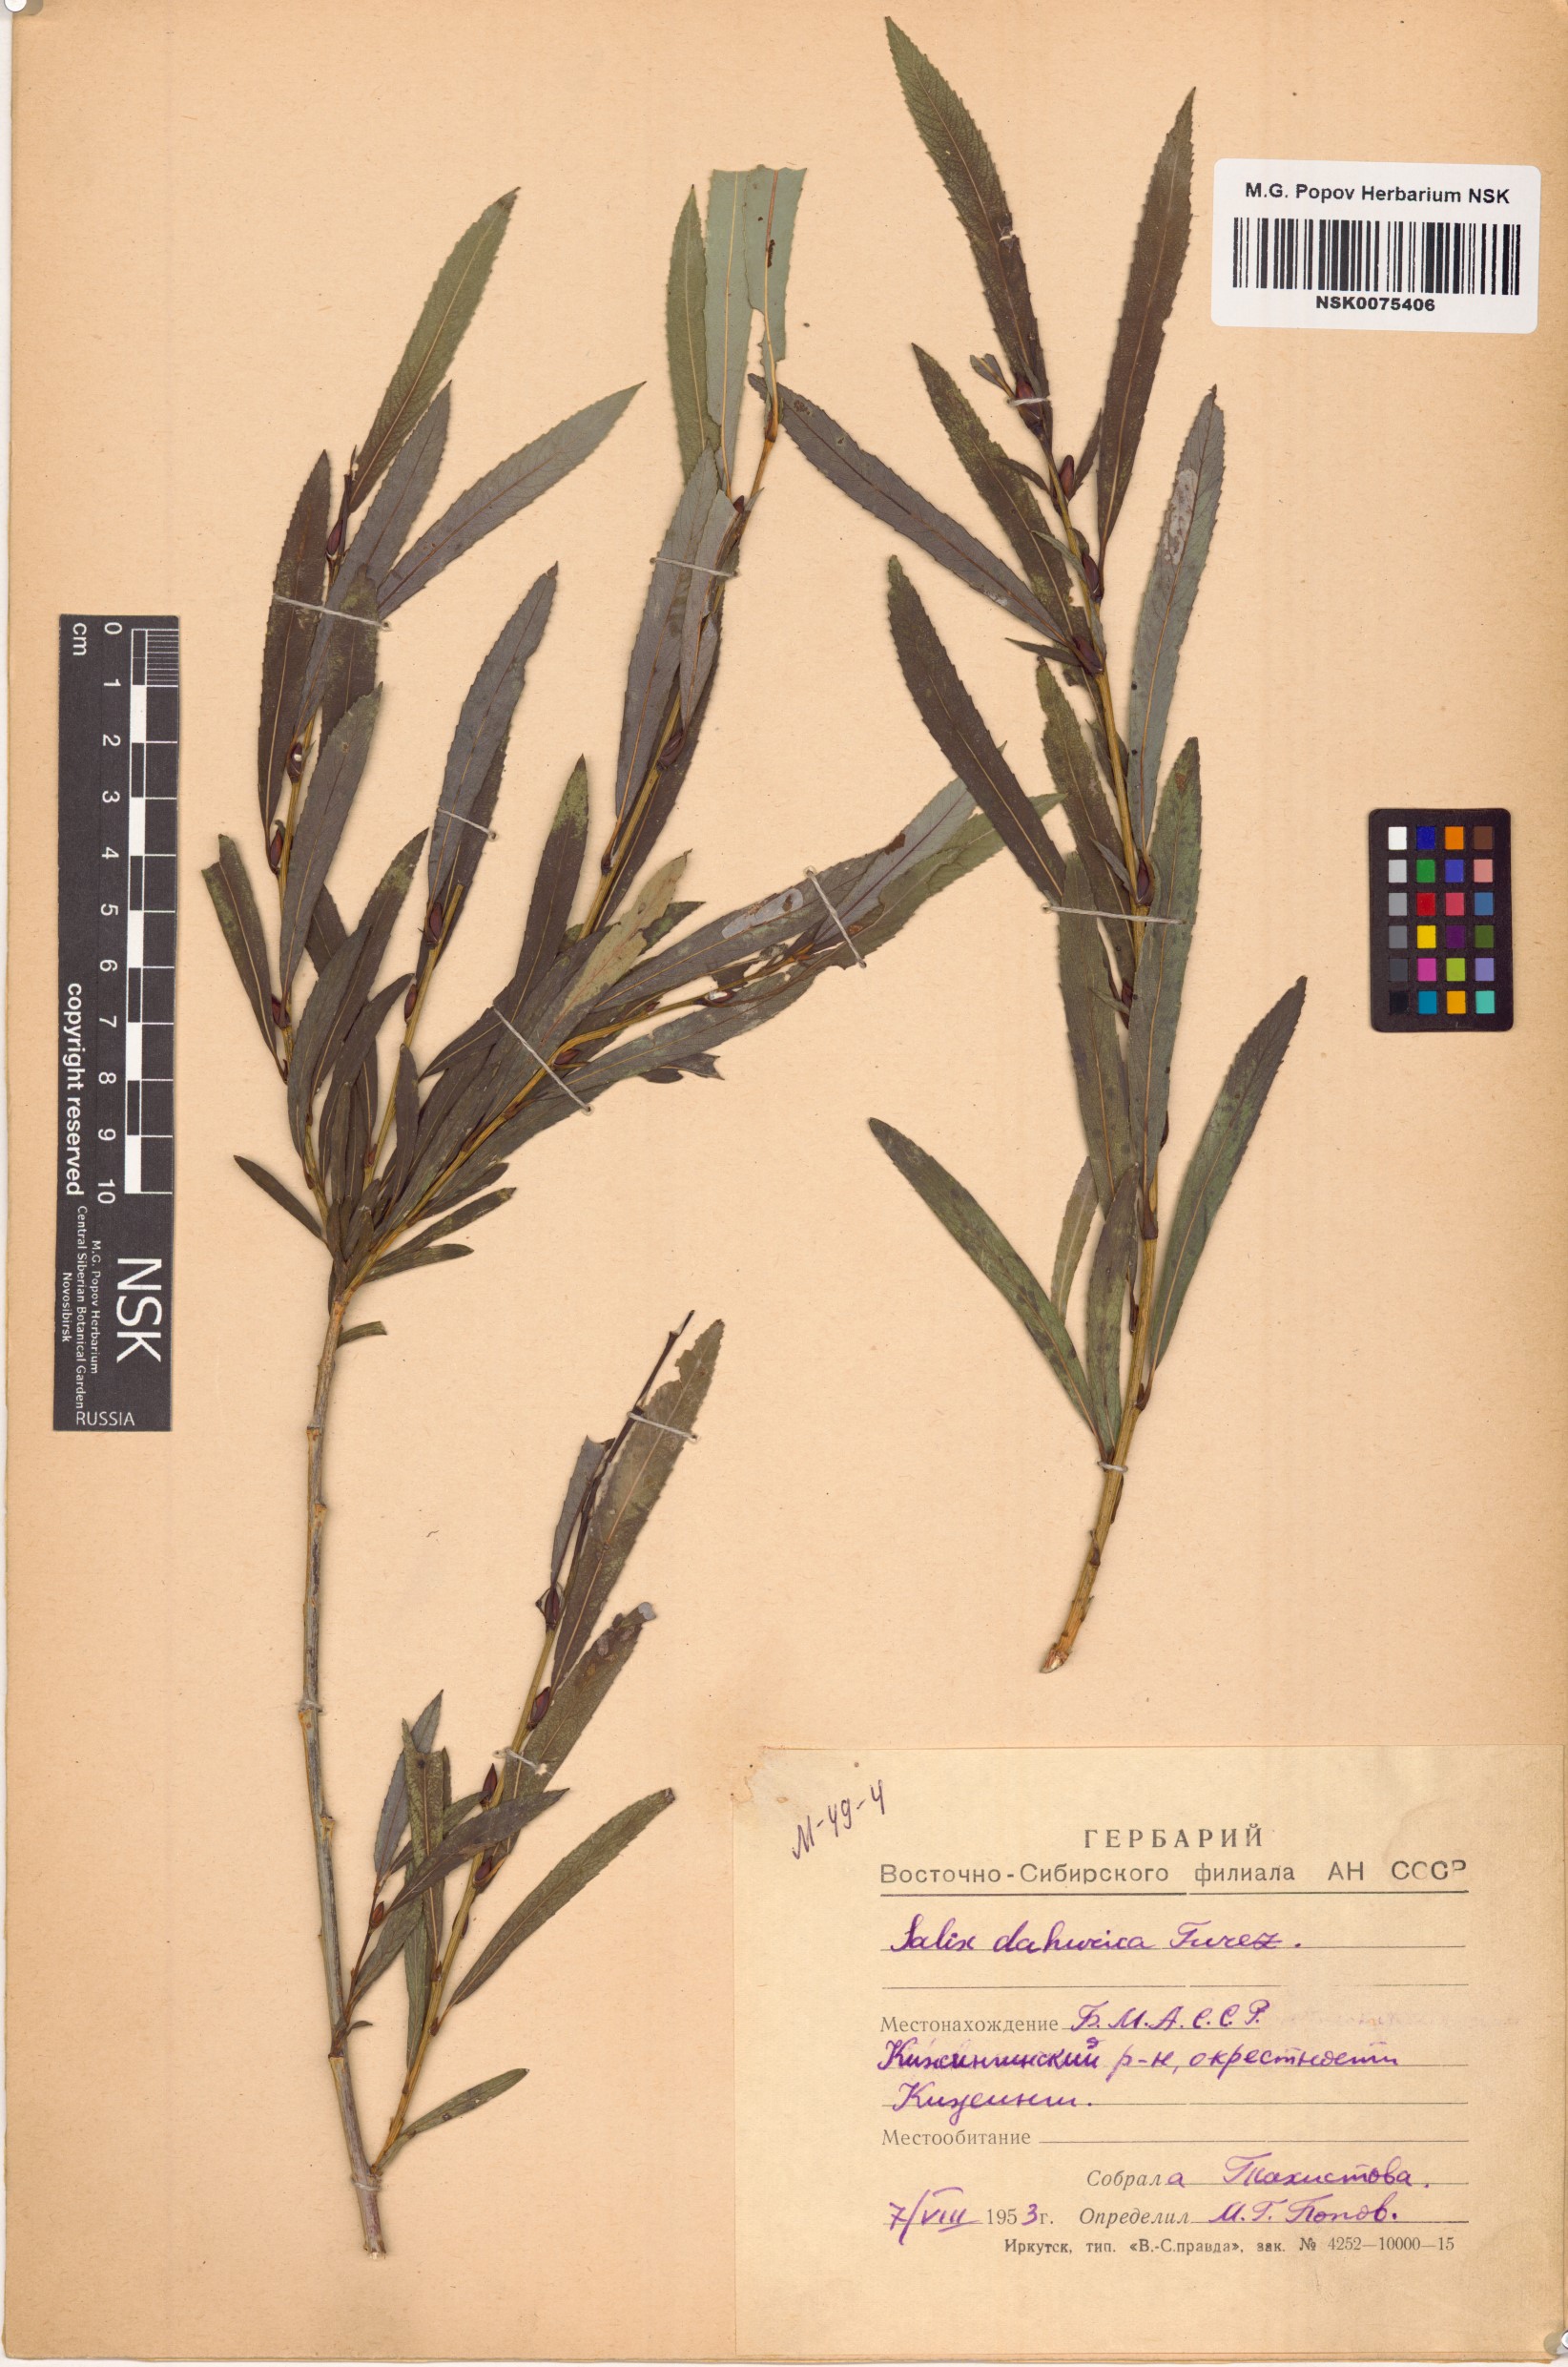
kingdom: Plantae
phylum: Tracheophyta
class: Magnoliopsida
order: Malpighiales
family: Salicaceae
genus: Salix
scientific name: Salix
